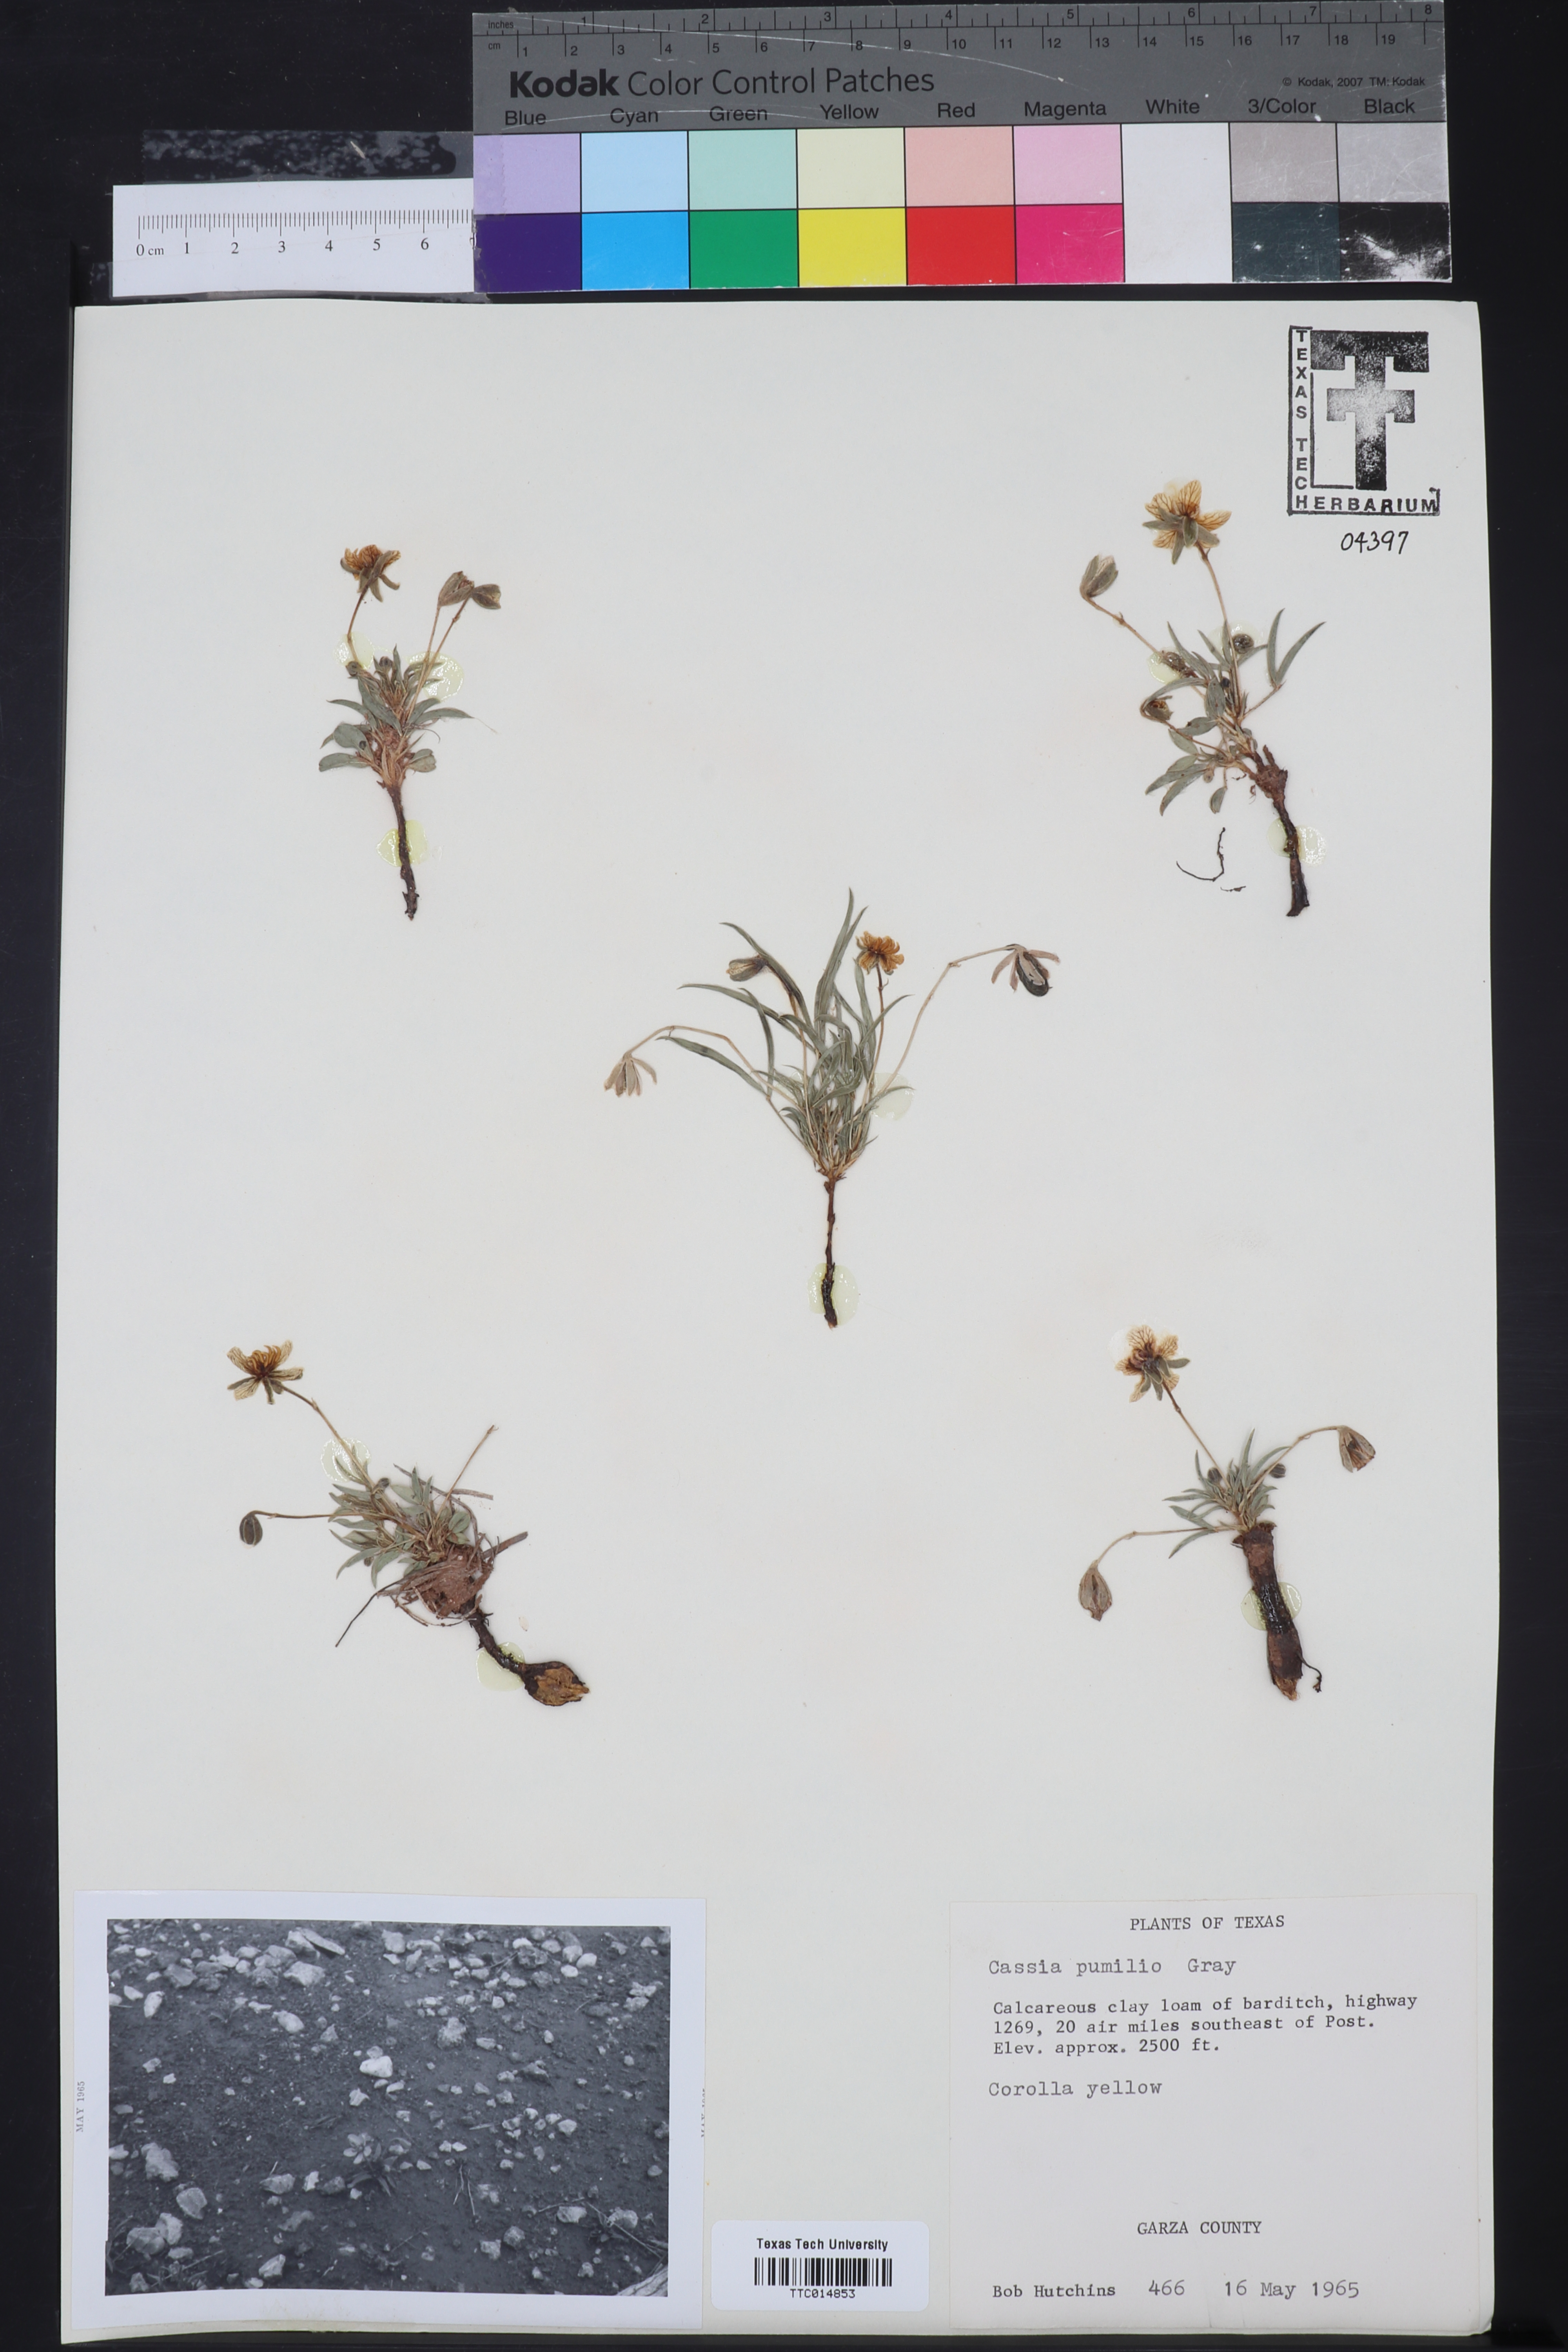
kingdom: Plantae
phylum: Tracheophyta
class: Magnoliopsida
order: Fabales
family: Fabaceae
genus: Senna
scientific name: Senna pumilio
